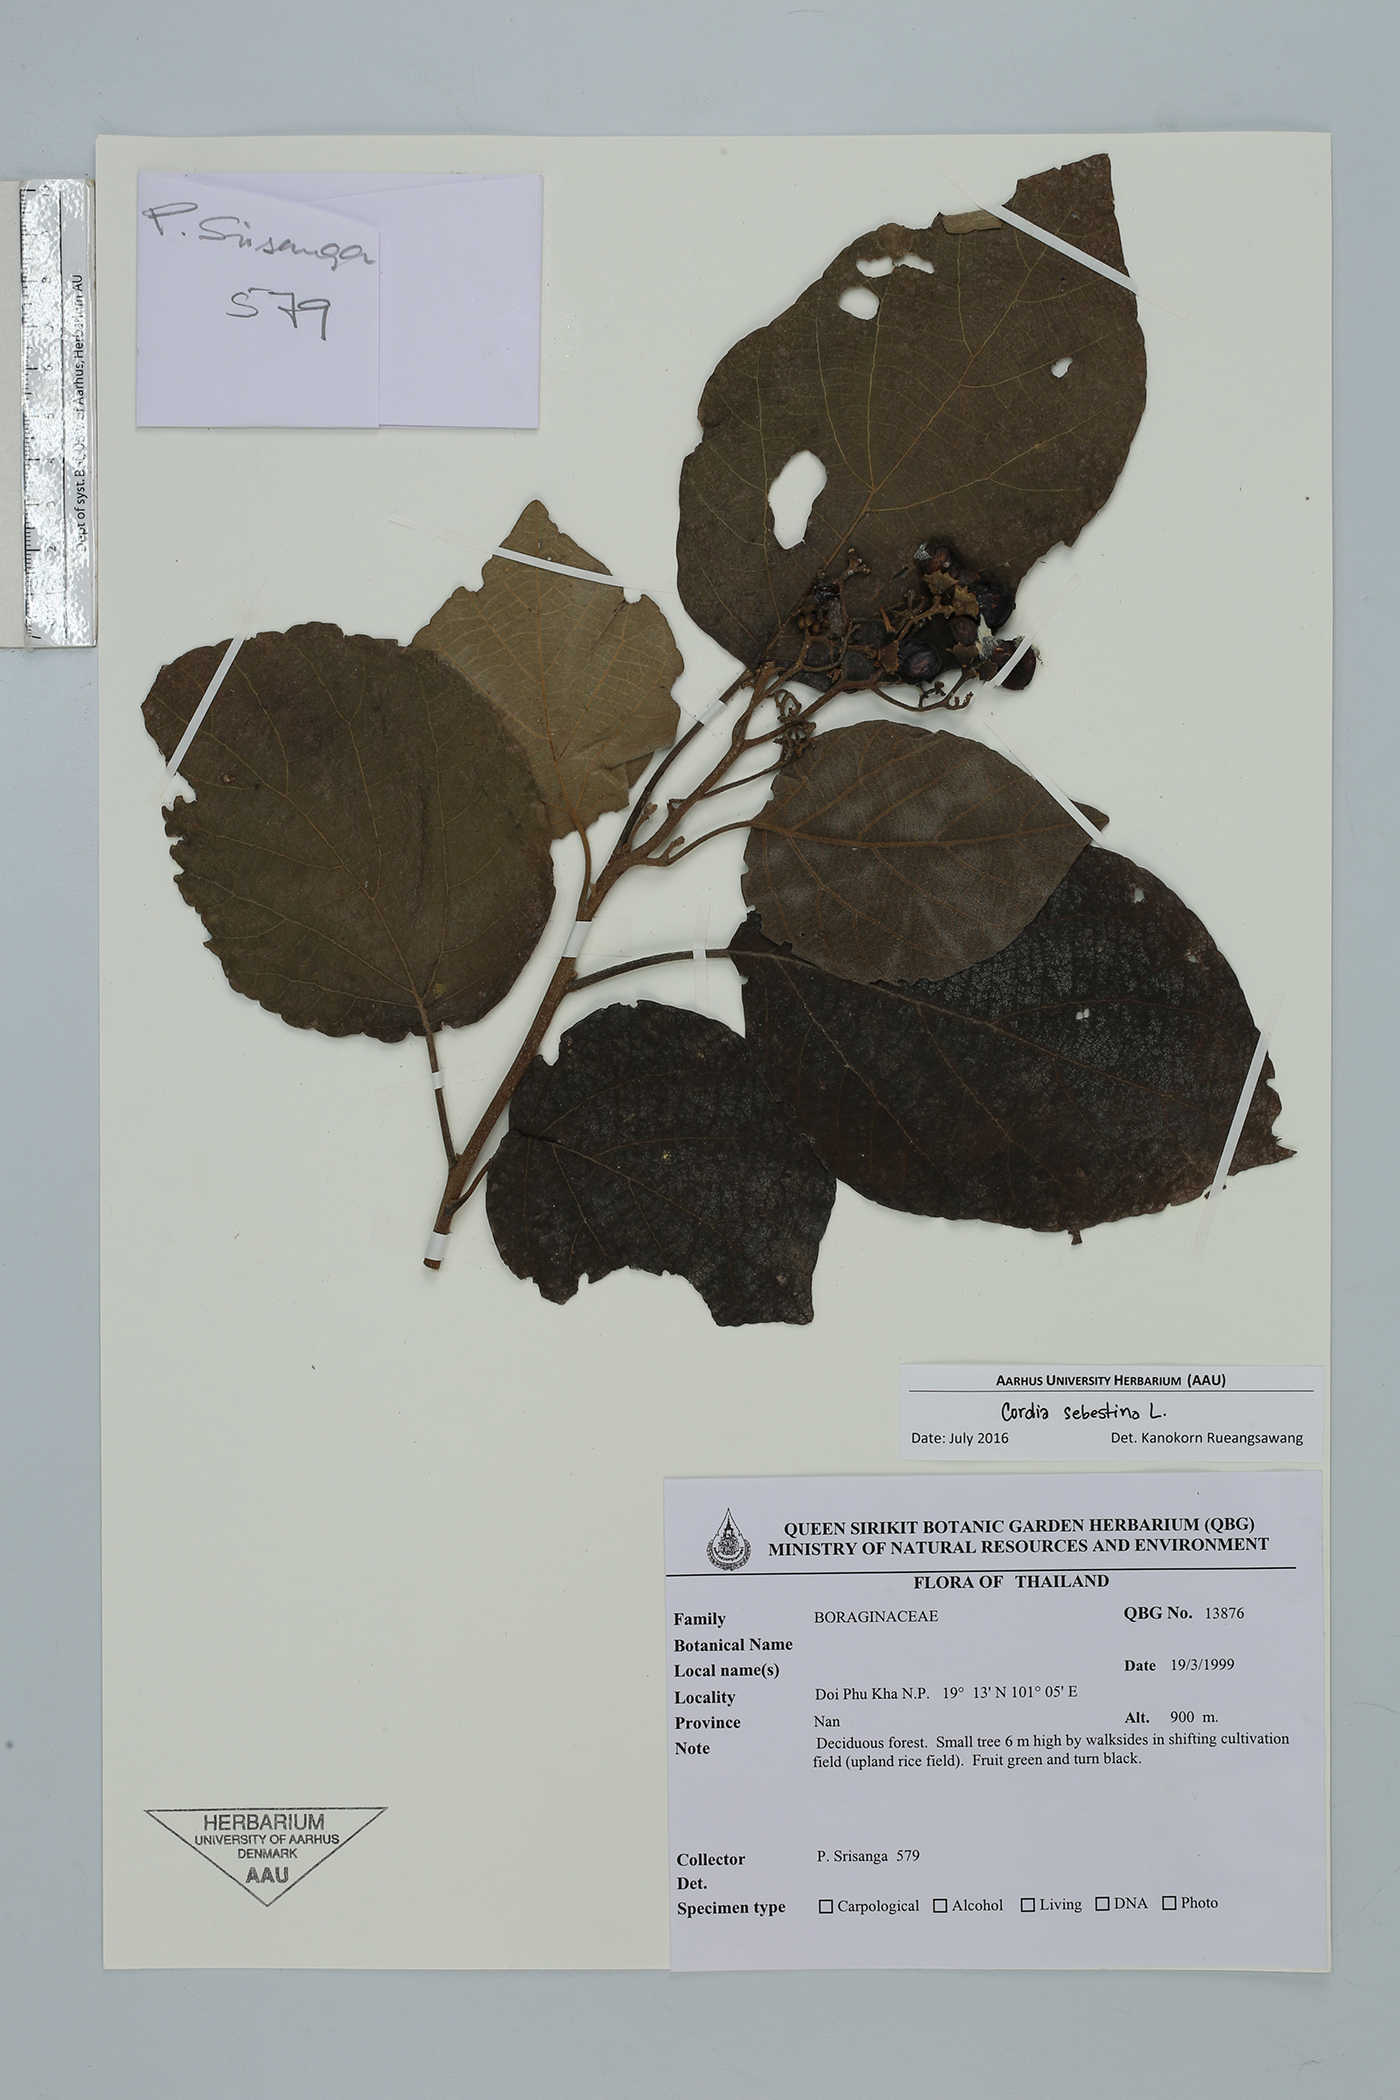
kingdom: Plantae
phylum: Tracheophyta
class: Magnoliopsida
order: Boraginales
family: Cordiaceae
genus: Cordia
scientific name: Cordia sebestena
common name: Largeleaf geigertree
